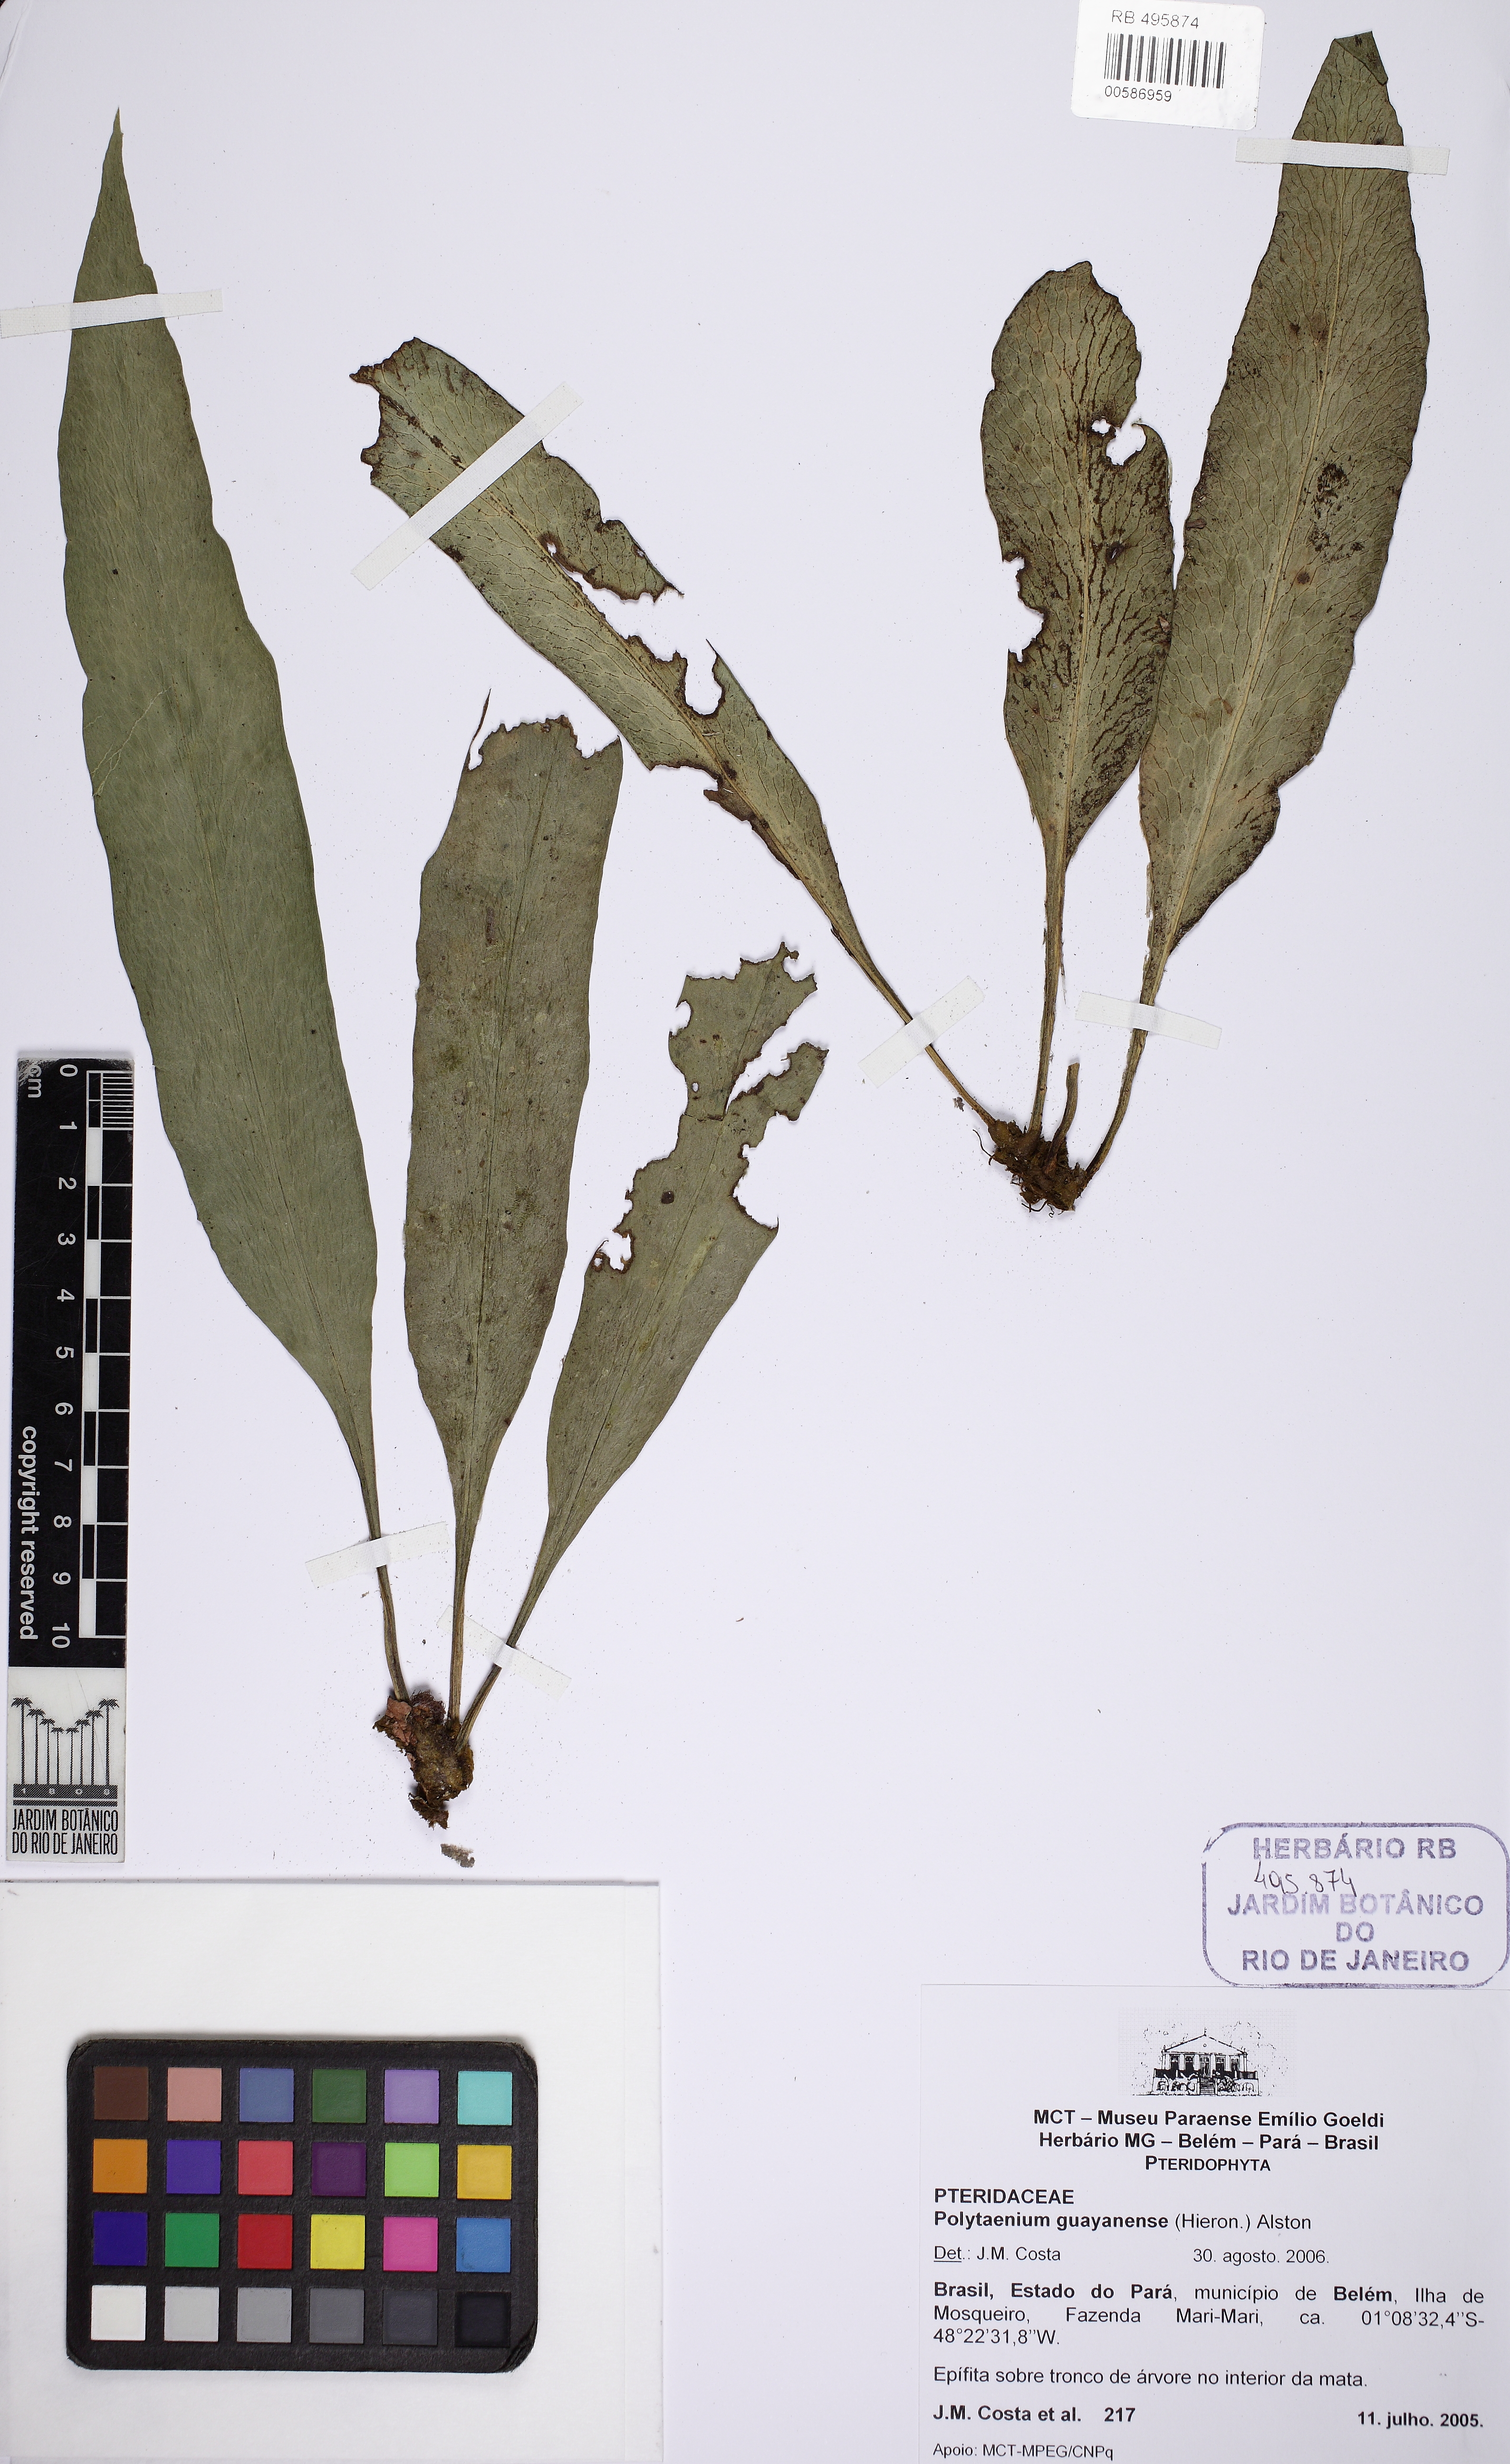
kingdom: Plantae
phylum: Tracheophyta
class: Polypodiopsida
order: Polypodiales
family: Pteridaceae
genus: Polytaenium
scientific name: Polytaenium guayanense
